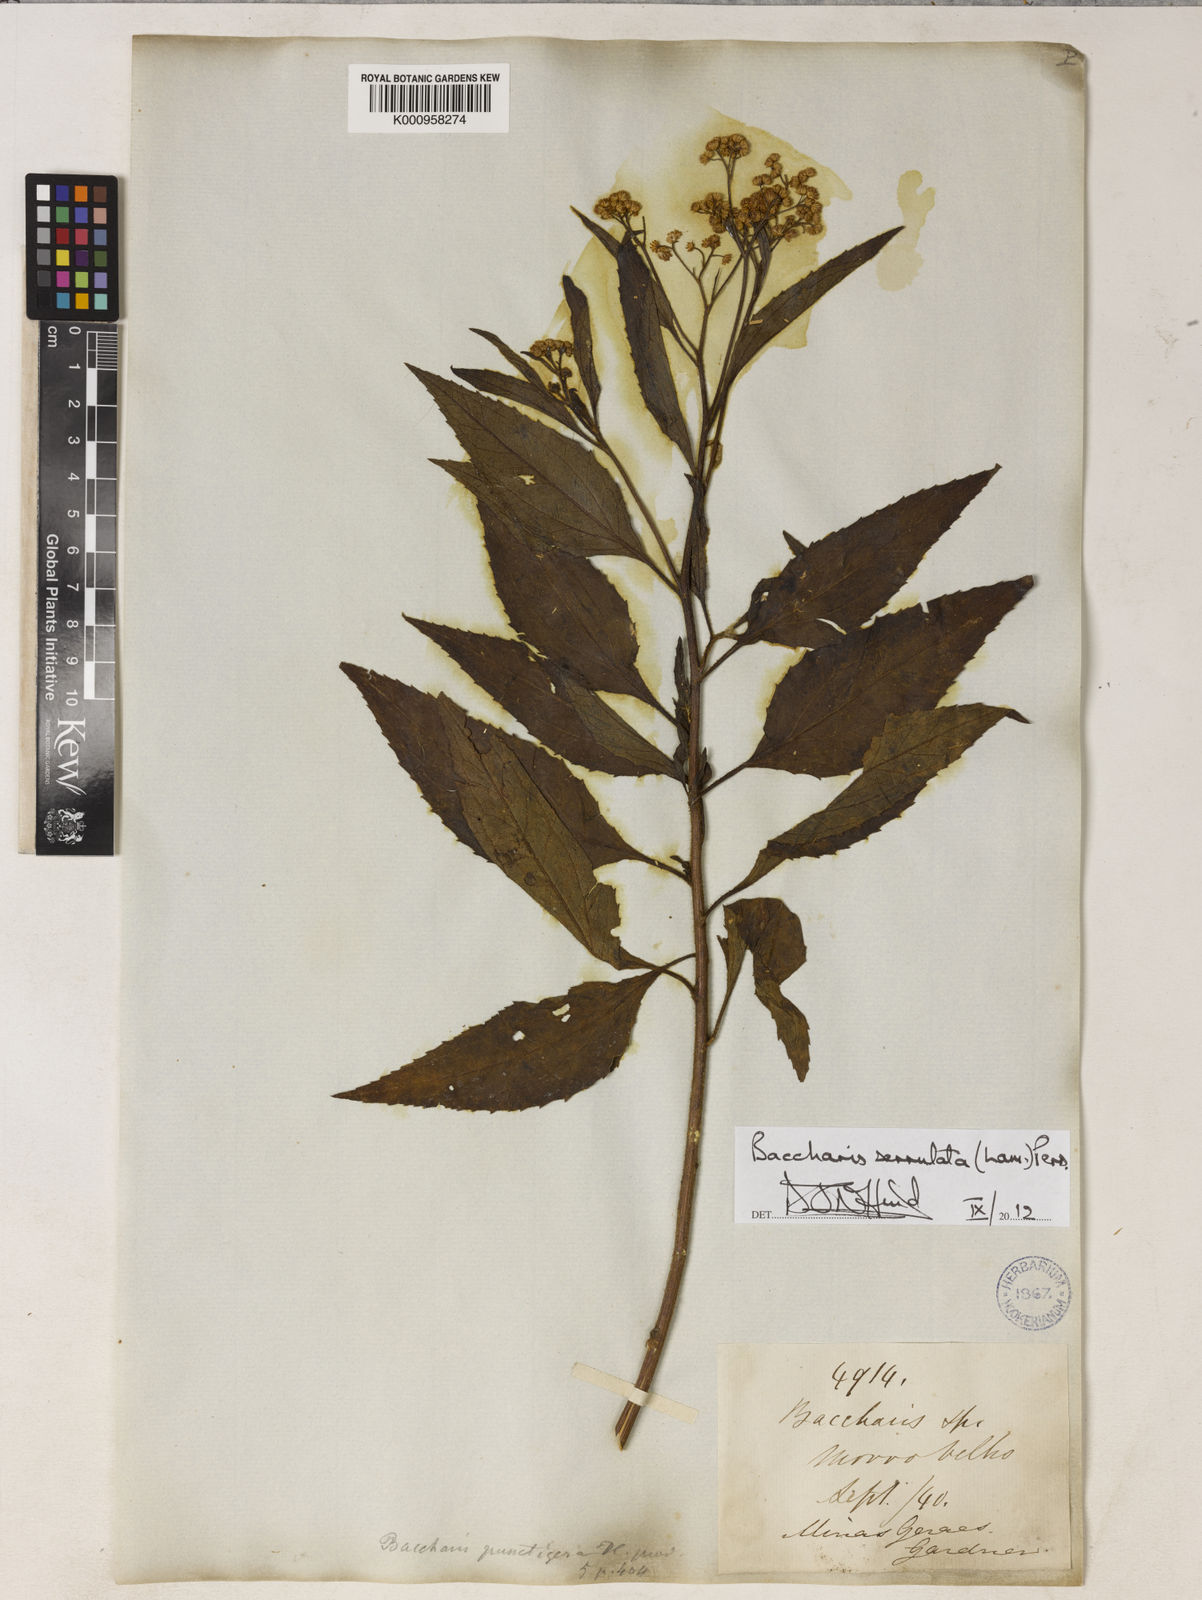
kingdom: Plantae
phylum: Tracheophyta
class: Magnoliopsida
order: Asterales
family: Asteraceae
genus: Baccharis
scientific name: Baccharis serrulata
